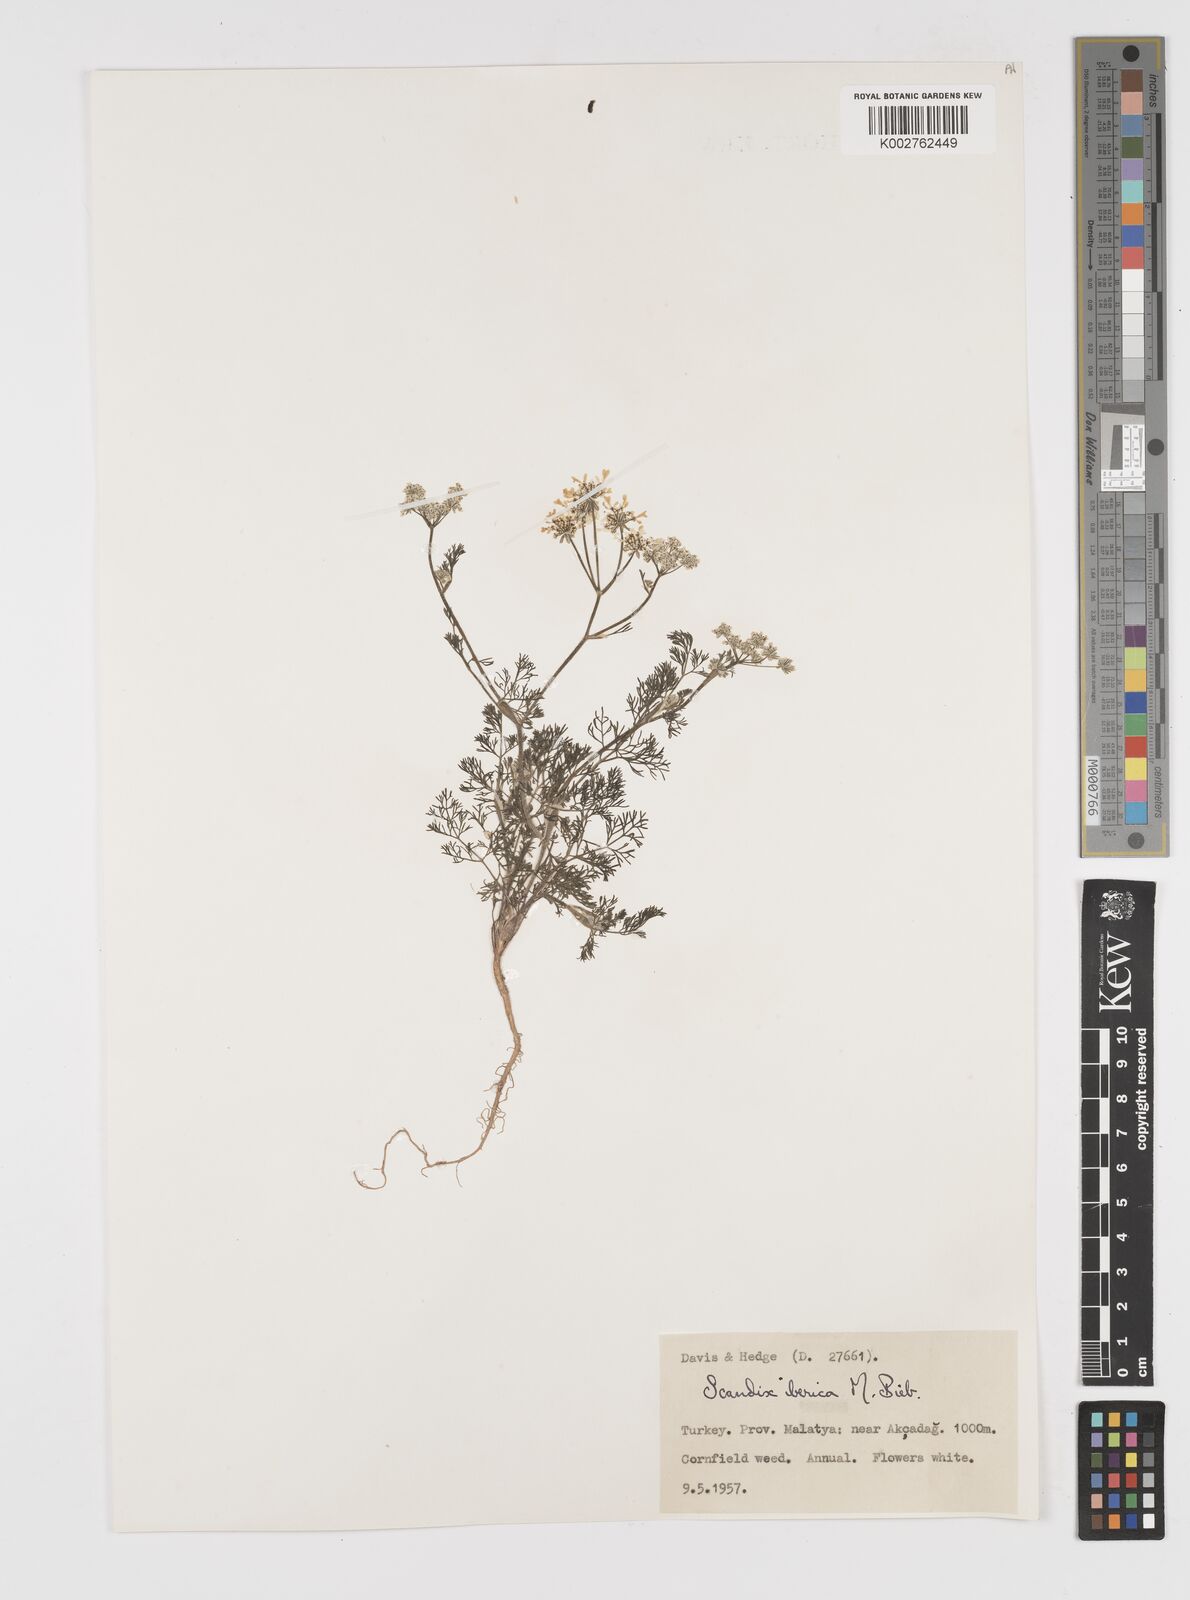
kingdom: Plantae
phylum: Tracheophyta
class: Magnoliopsida
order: Apiales
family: Apiaceae
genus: Scandix
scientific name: Scandix iberica
